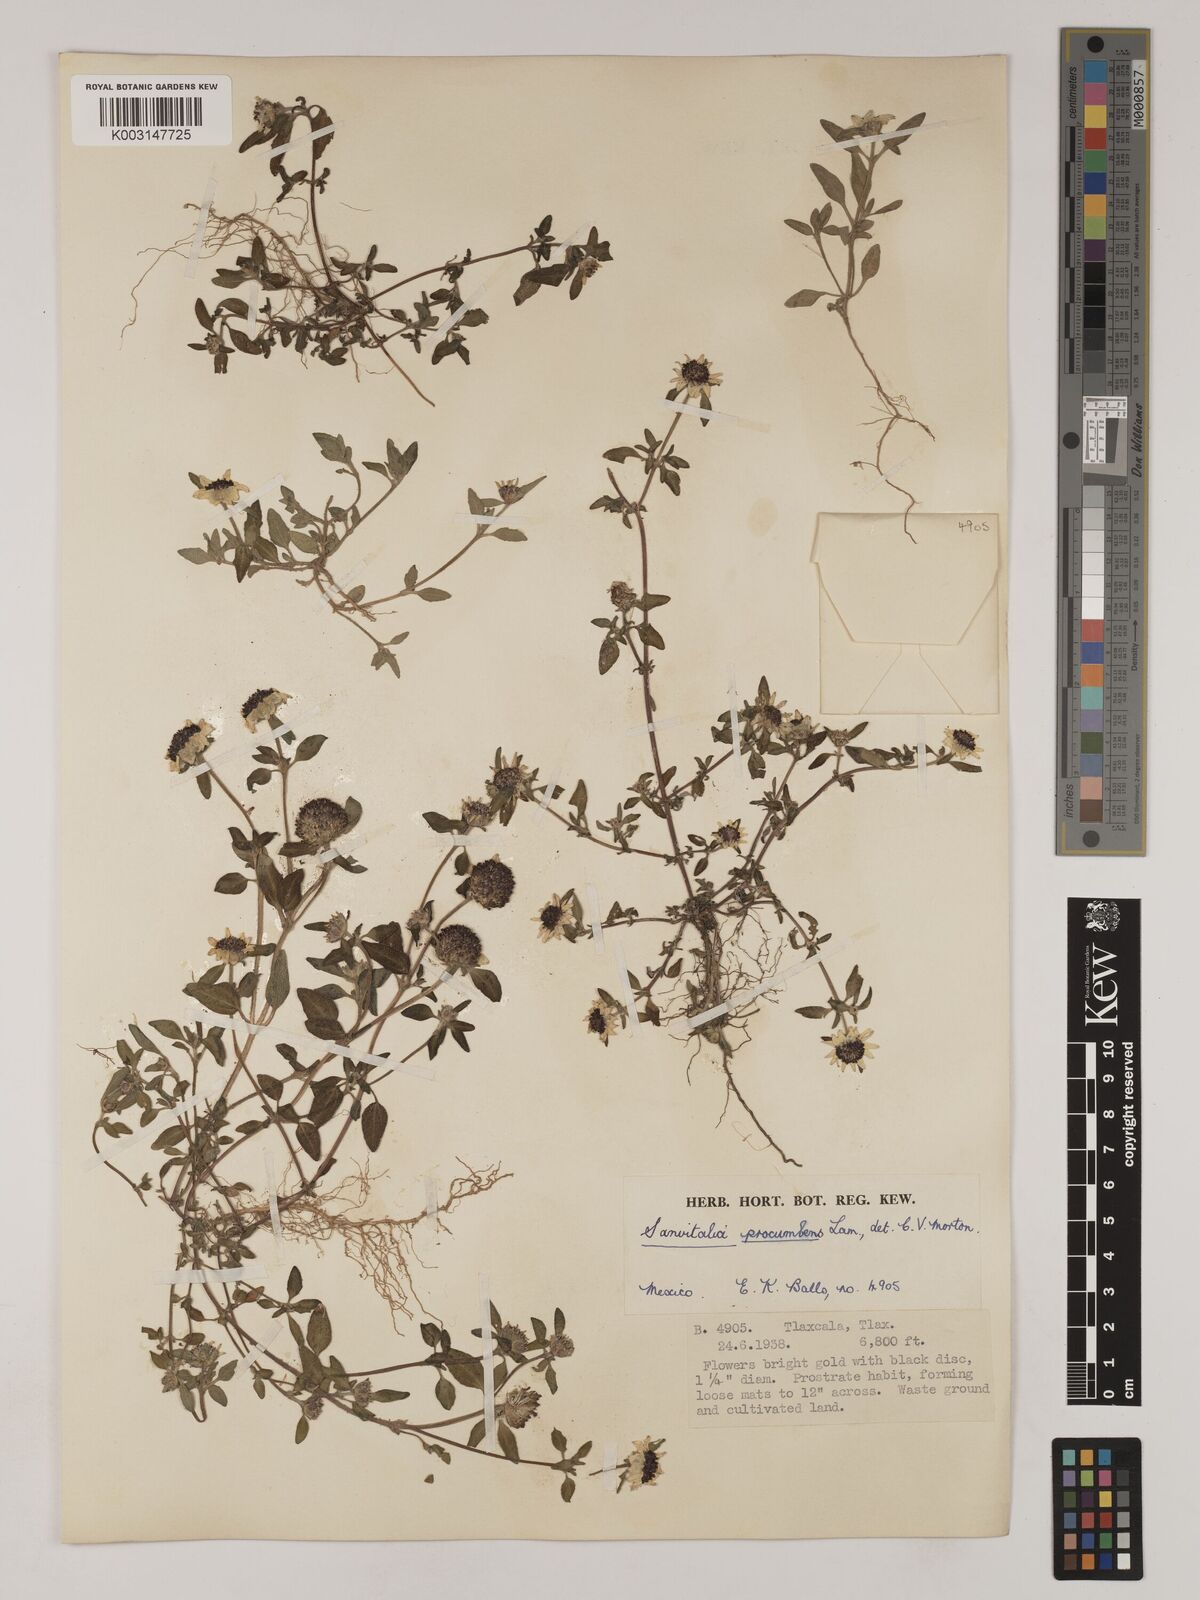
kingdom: Plantae
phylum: Tracheophyta
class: Magnoliopsida
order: Asterales
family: Asteraceae
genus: Sanvitalia
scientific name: Sanvitalia procumbens
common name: Mexican creeping zinnia
